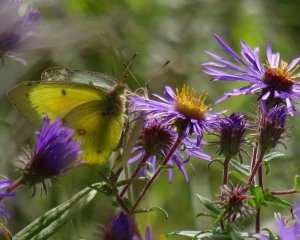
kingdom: Animalia
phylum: Arthropoda
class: Insecta
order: Lepidoptera
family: Pieridae
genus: Colias
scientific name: Colias philodice
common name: Clouded Sulphur
